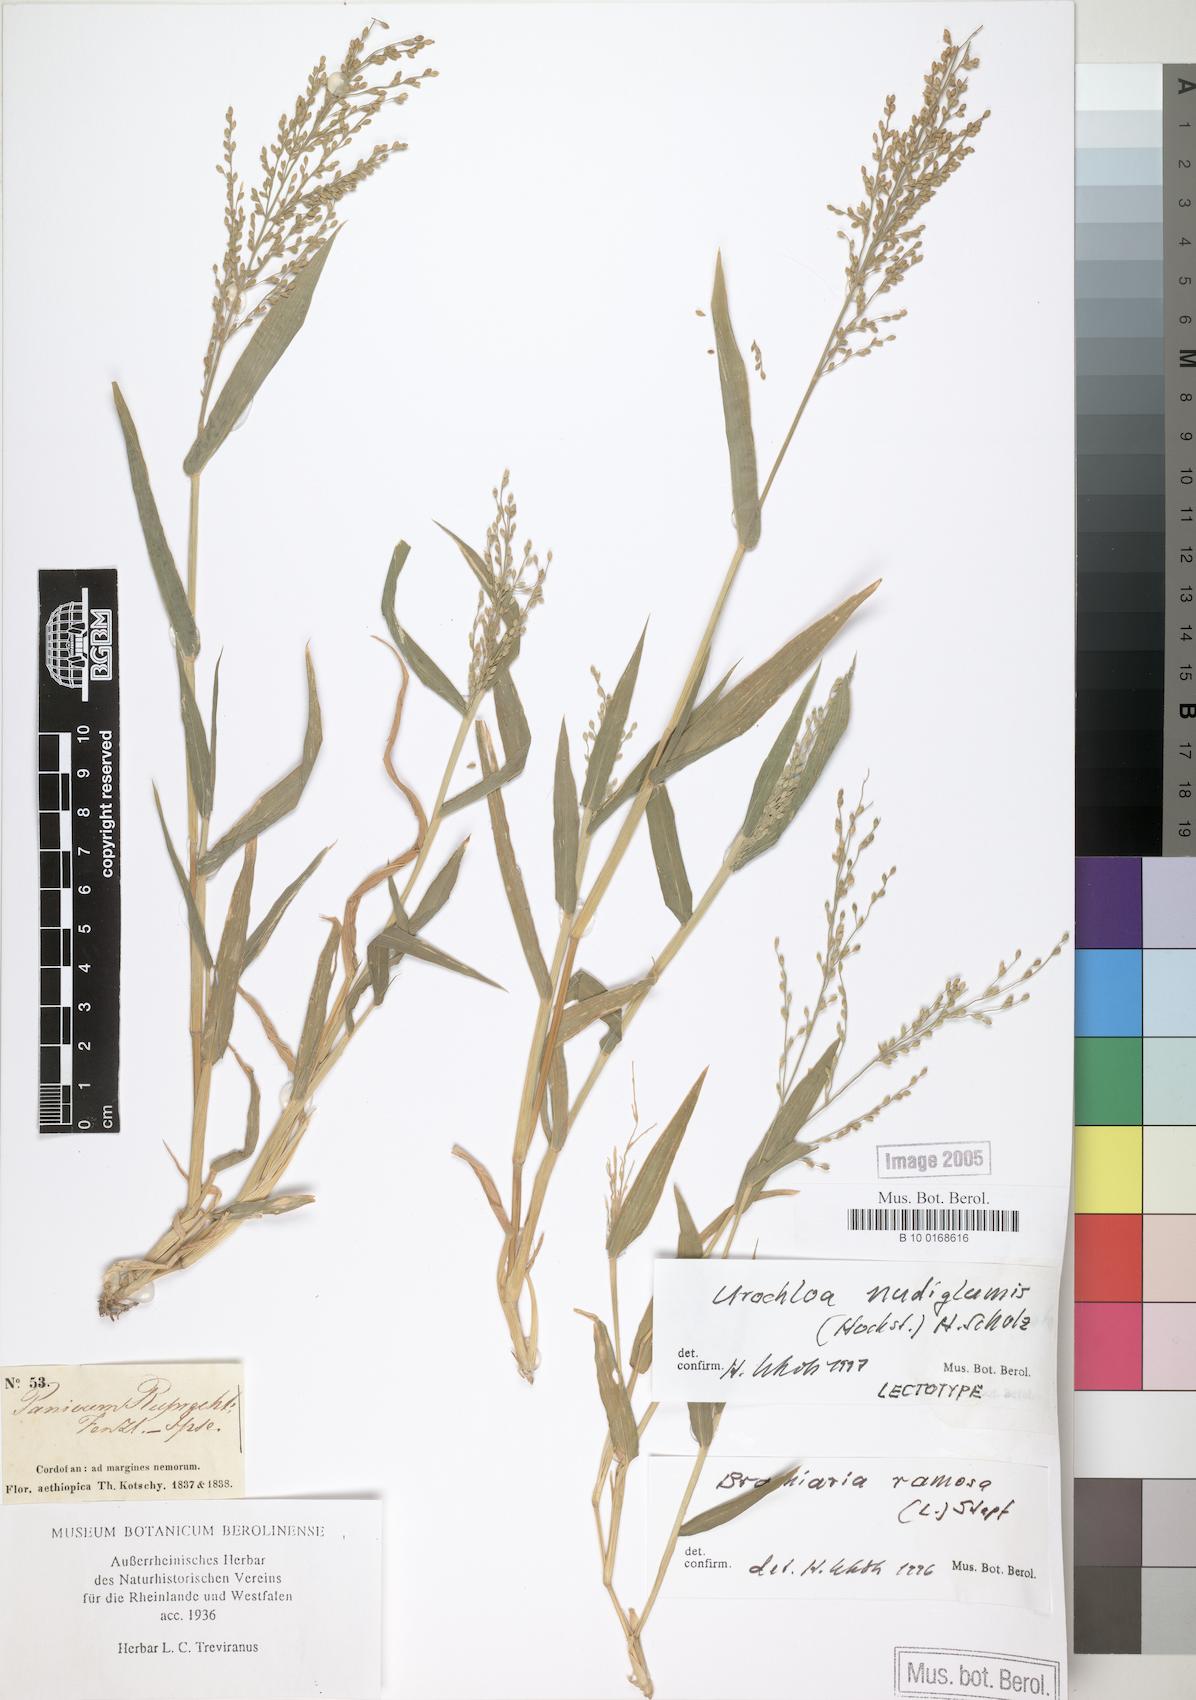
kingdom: Plantae
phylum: Tracheophyta
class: Liliopsida
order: Poales
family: Poaceae
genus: Urochloa
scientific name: Urochloa deflexa
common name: Guinea millet
